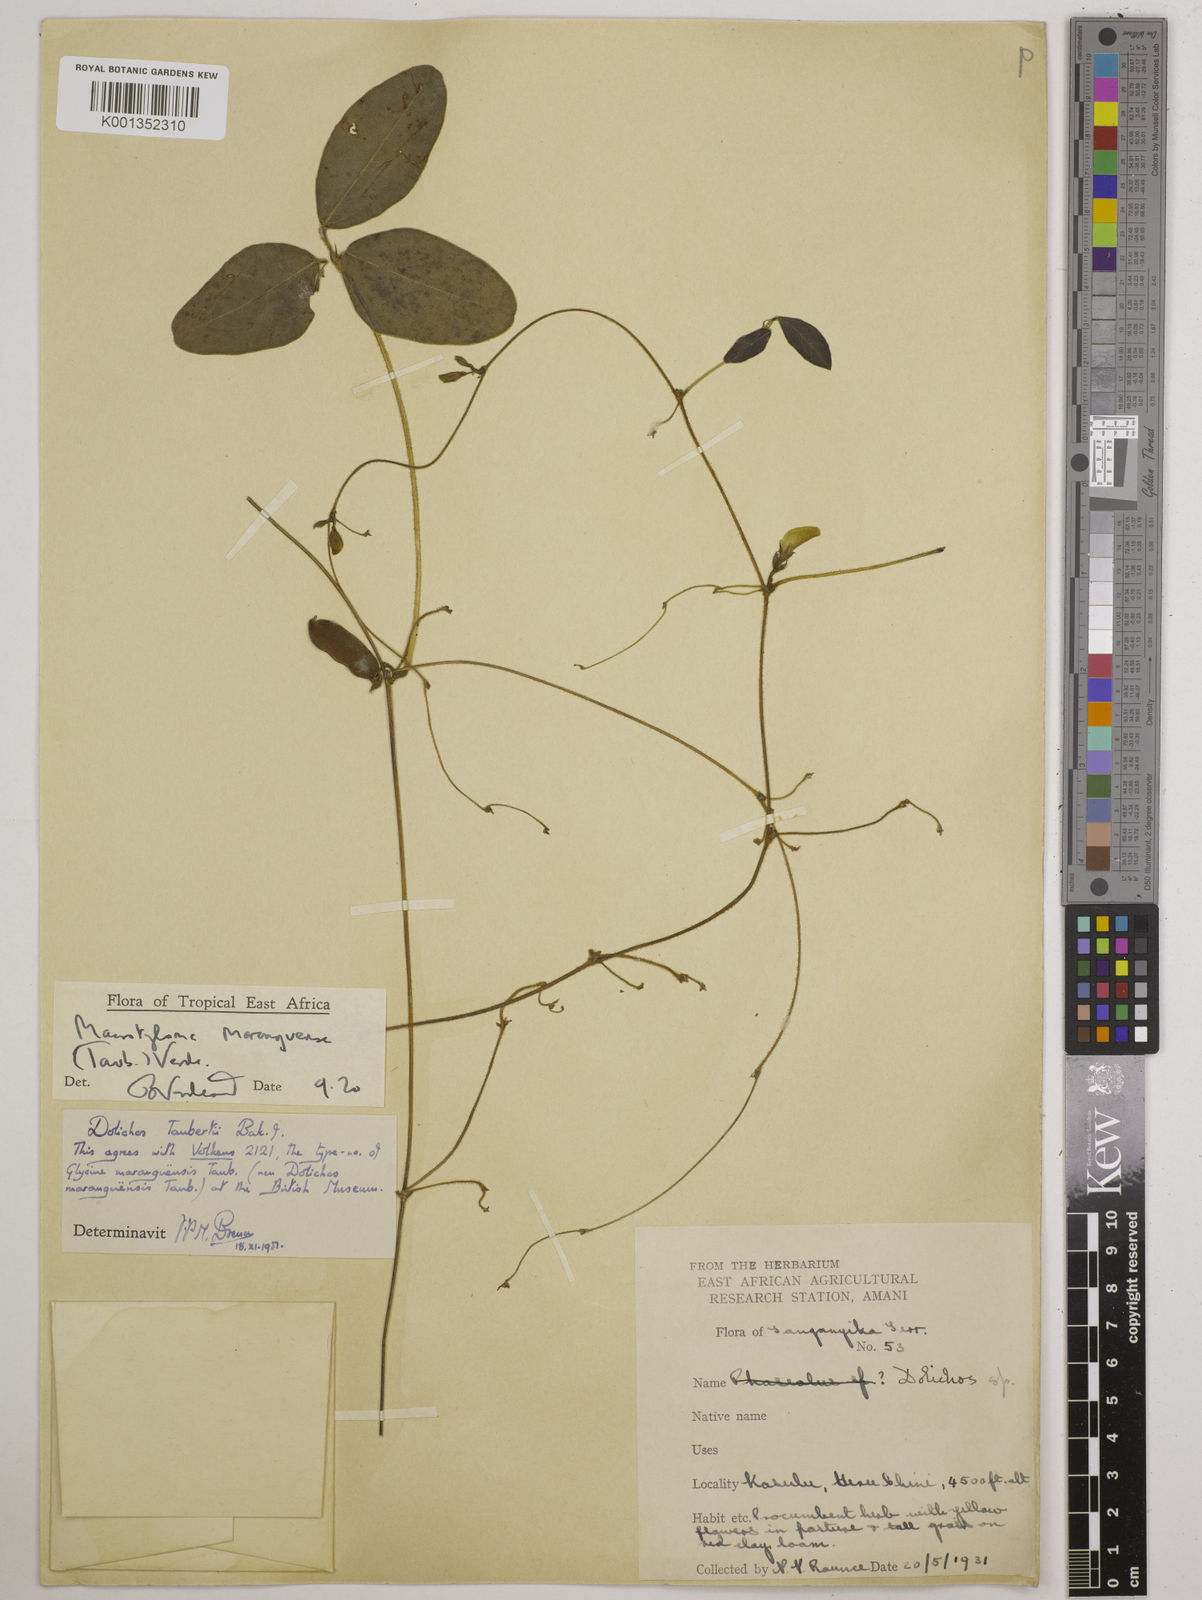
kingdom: Plantae
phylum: Tracheophyta
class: Magnoliopsida
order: Fabales
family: Fabaceae
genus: Macrotyloma
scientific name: Macrotyloma maranguense
